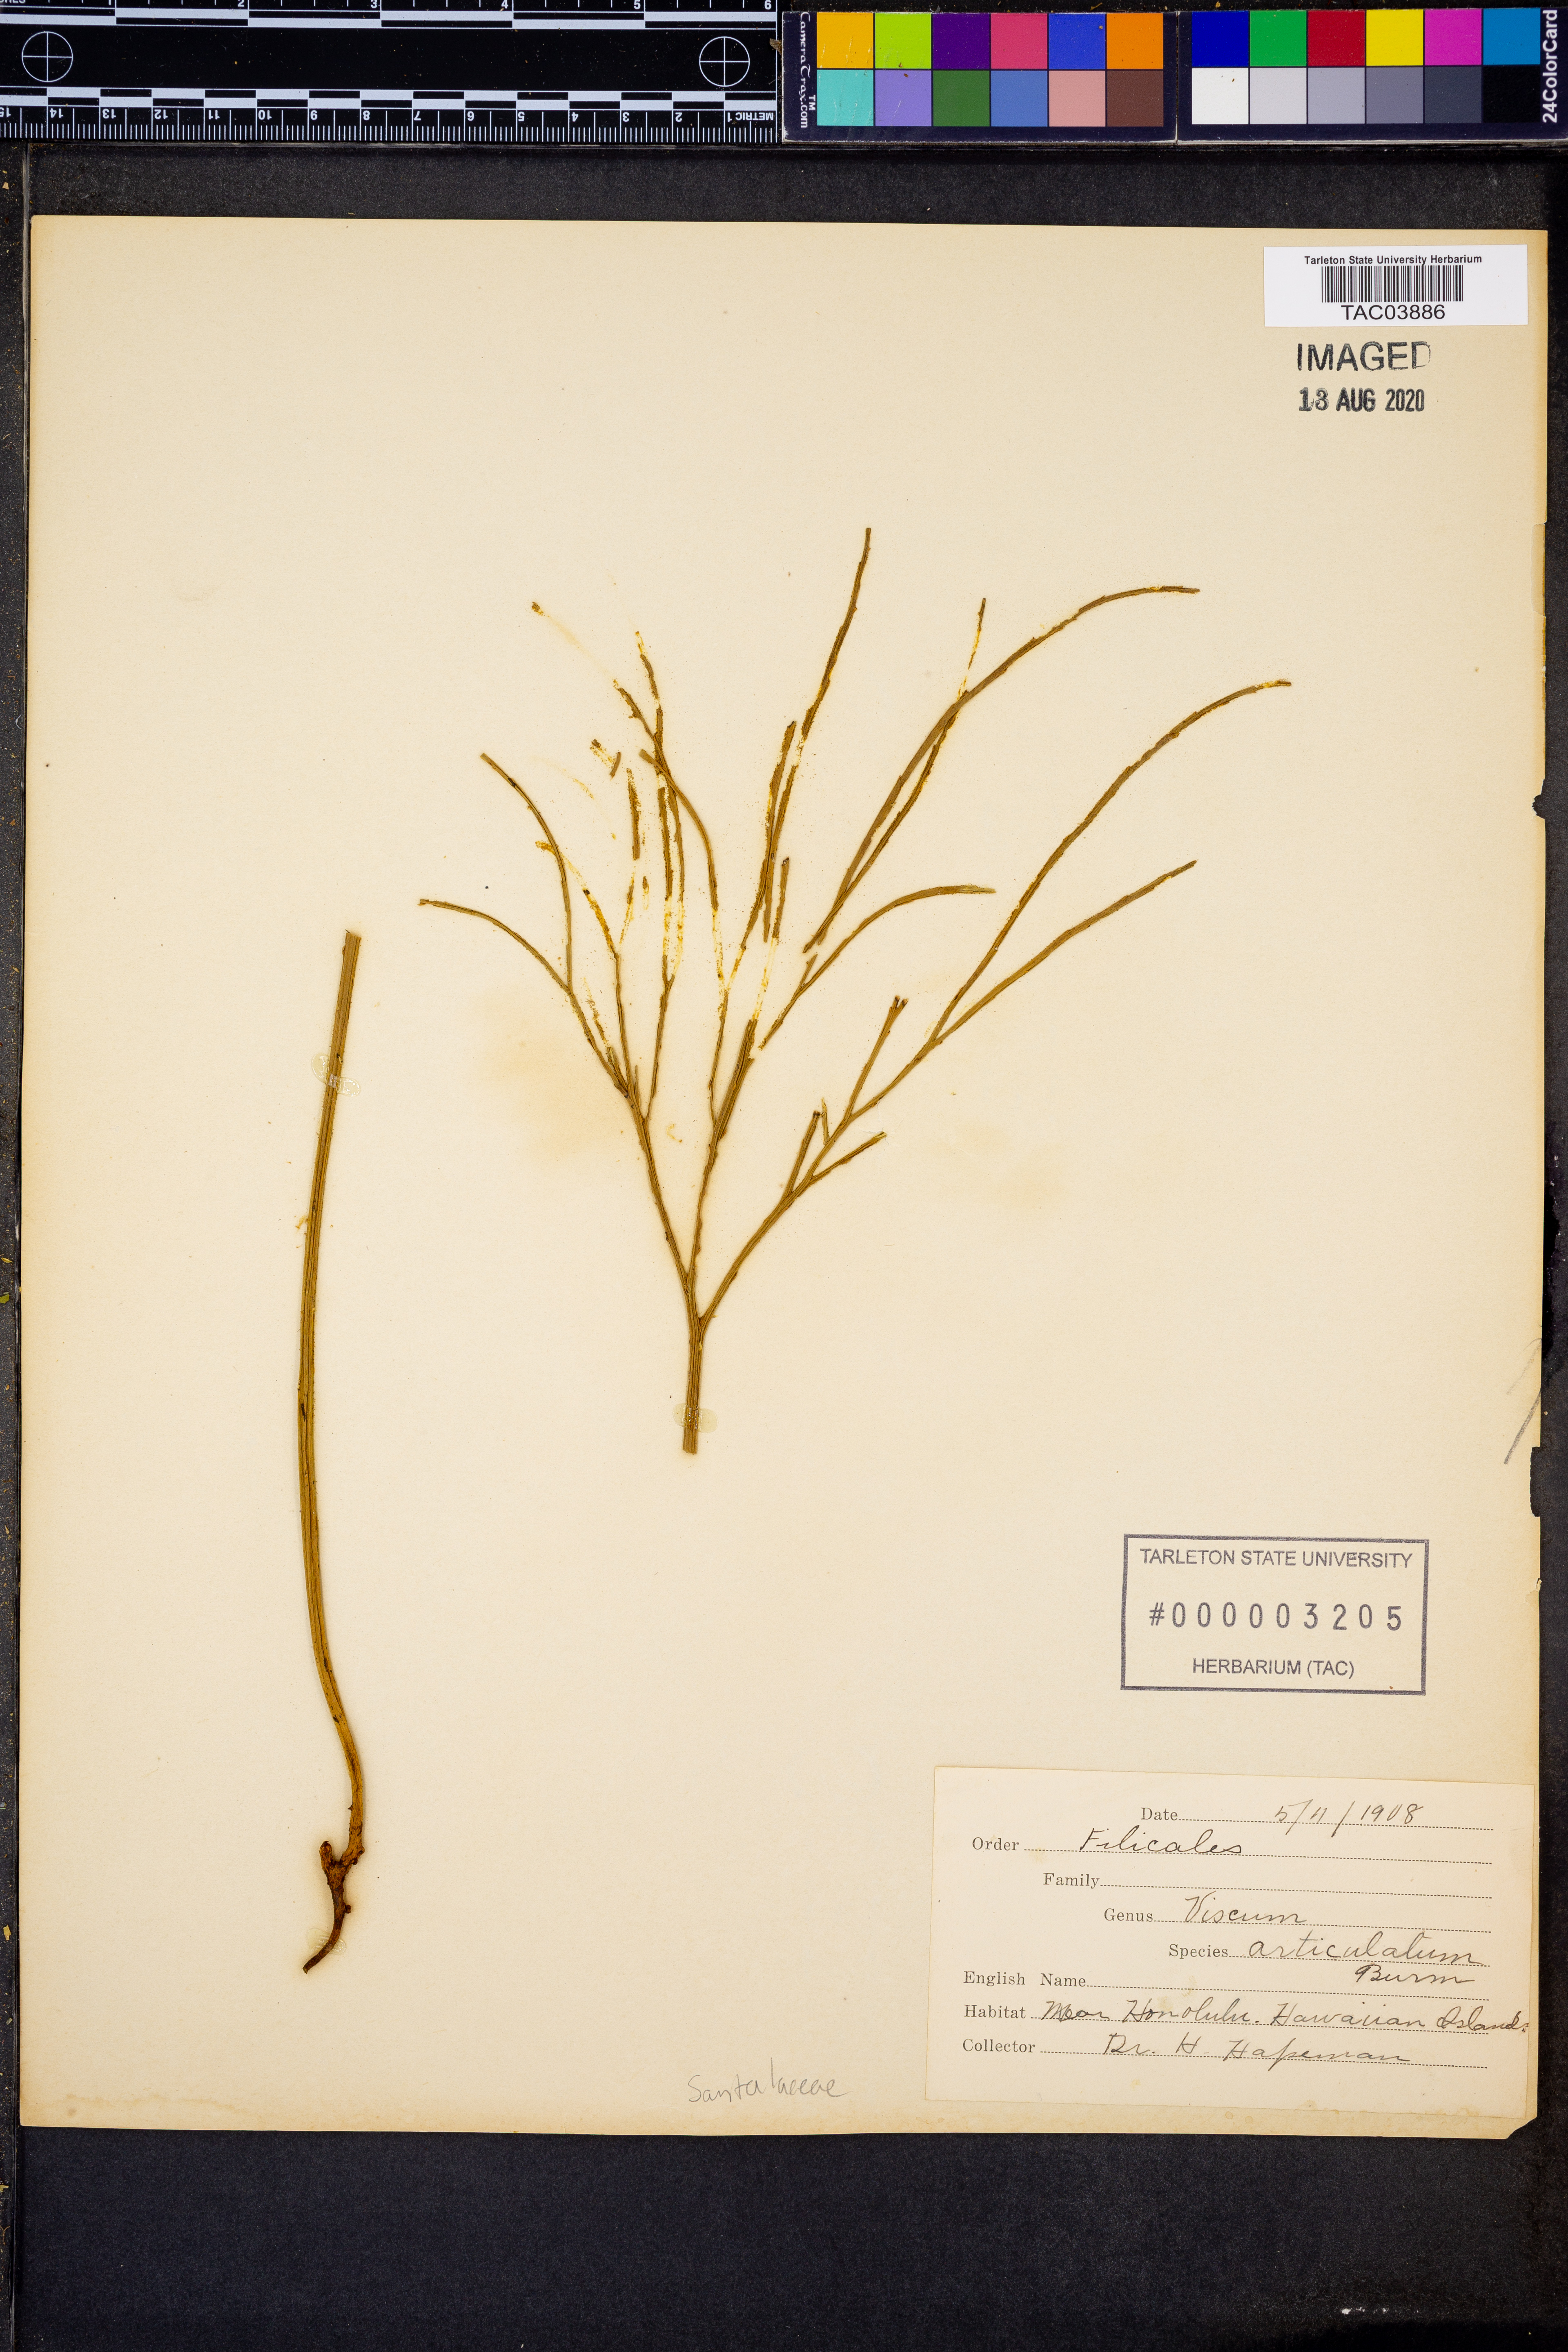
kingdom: Plantae
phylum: Tracheophyta
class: Magnoliopsida
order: Santalales
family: Viscaceae
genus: Viscum
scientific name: Viscum articulatum
